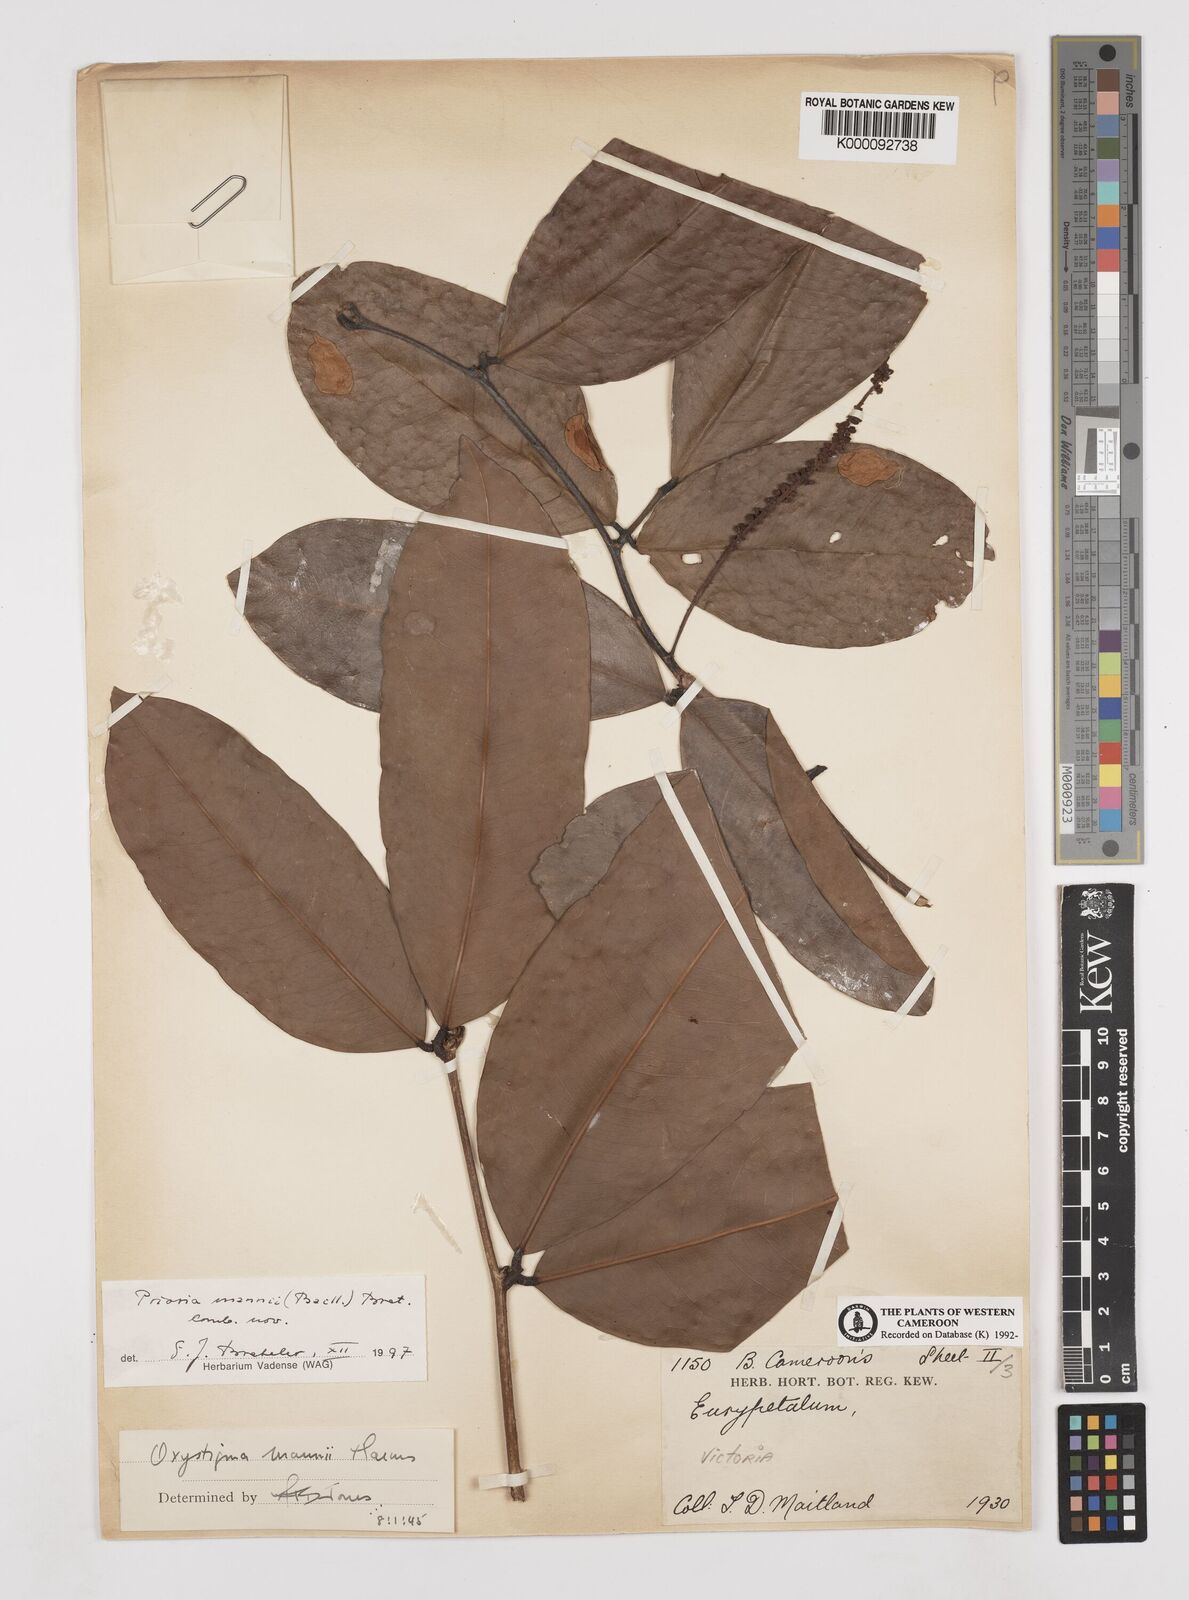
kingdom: Plantae
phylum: Tracheophyta
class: Magnoliopsida
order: Fabales
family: Fabaceae
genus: Prioria
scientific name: Prioria mannii
